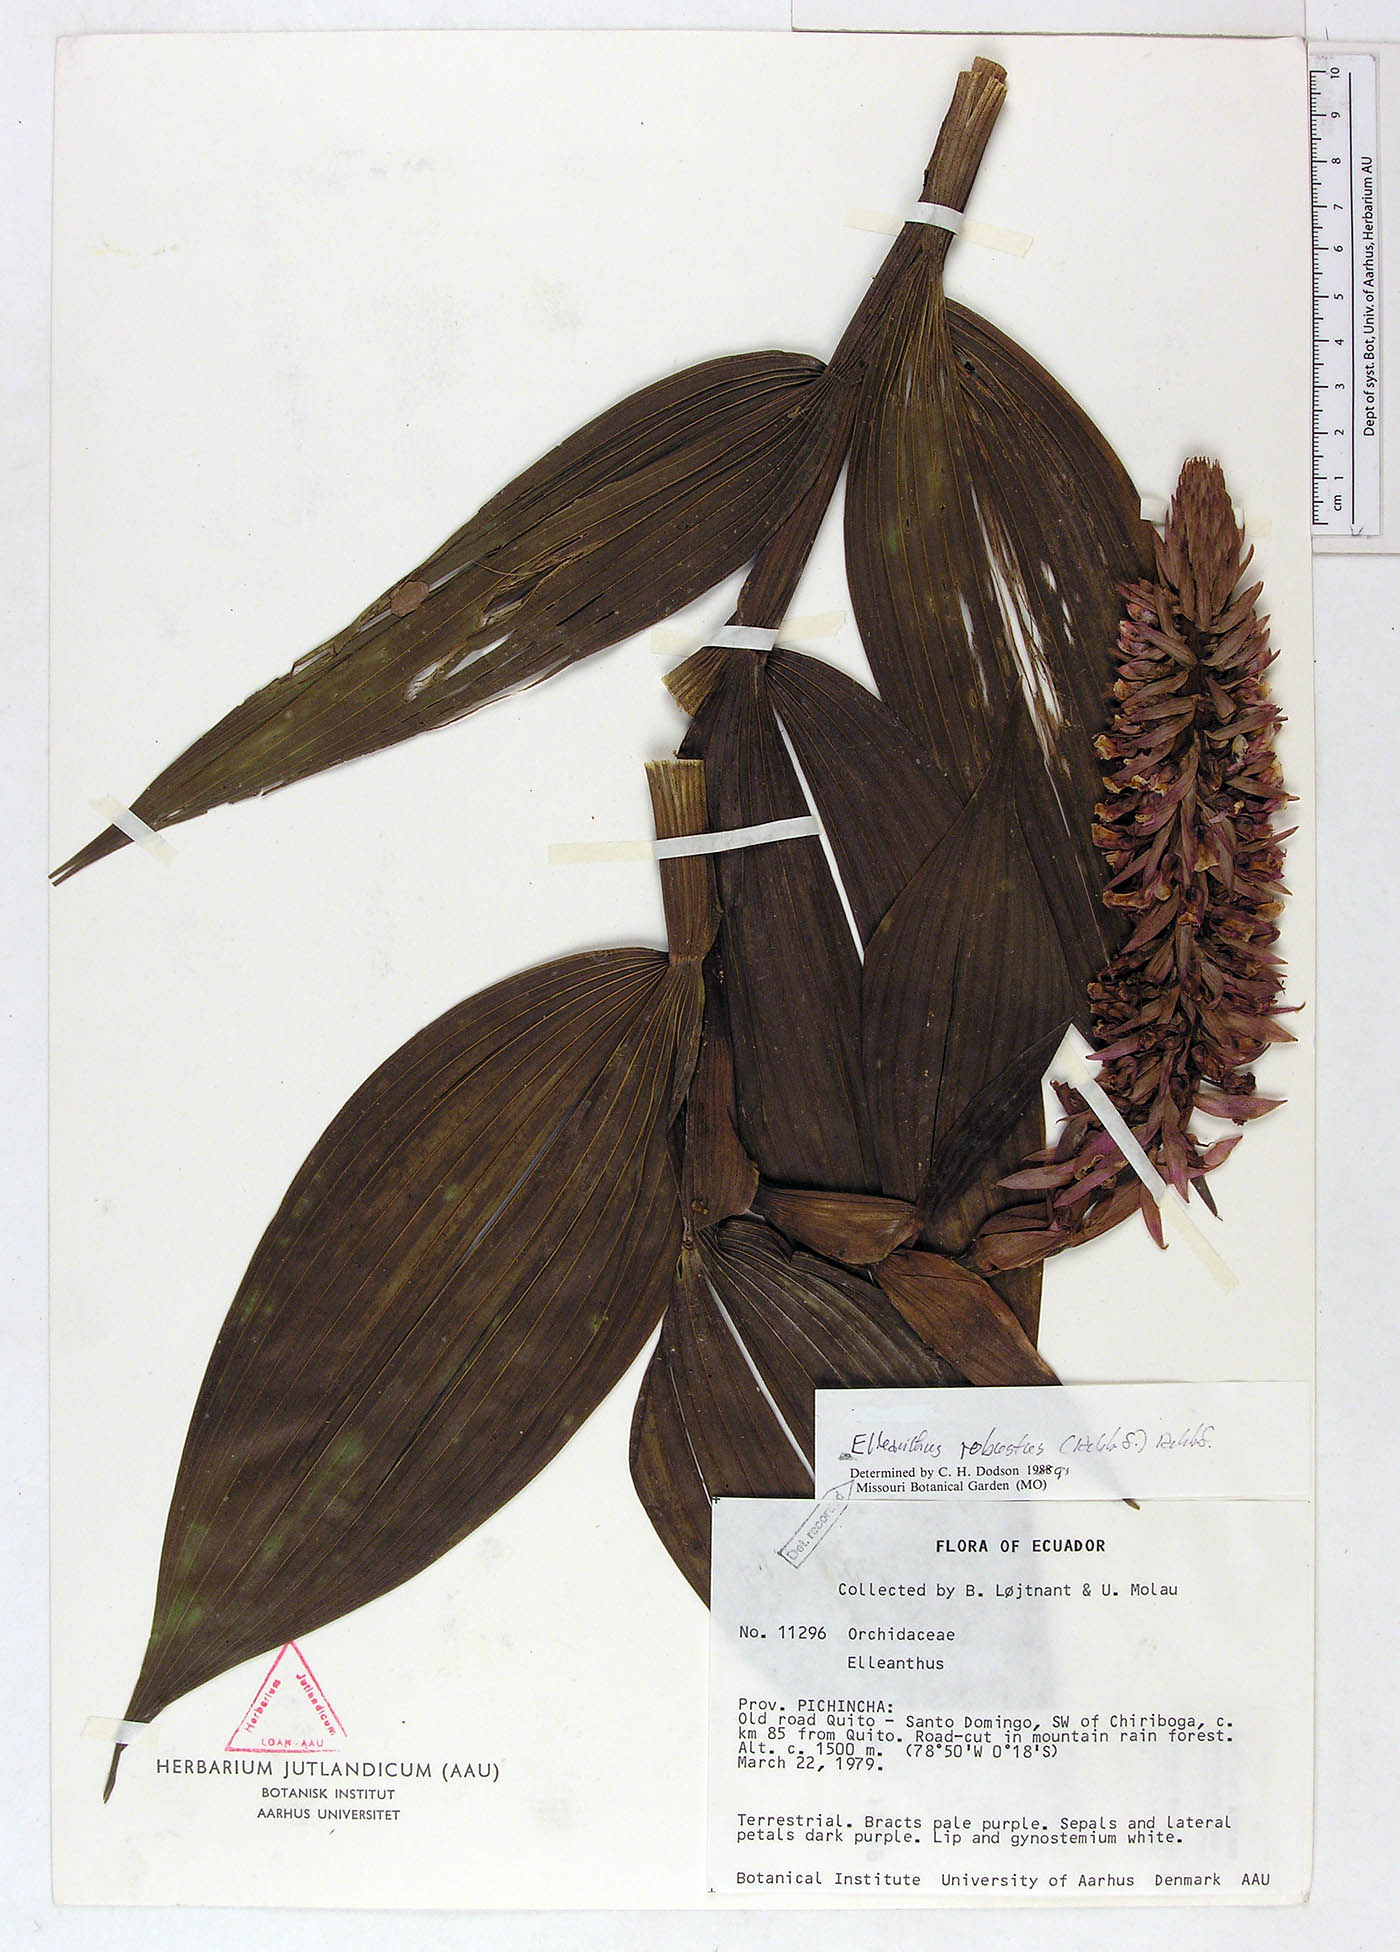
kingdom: Plantae
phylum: Tracheophyta
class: Liliopsida
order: Asparagales
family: Orchidaceae
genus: Elleanthus
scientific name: Elleanthus robustus
